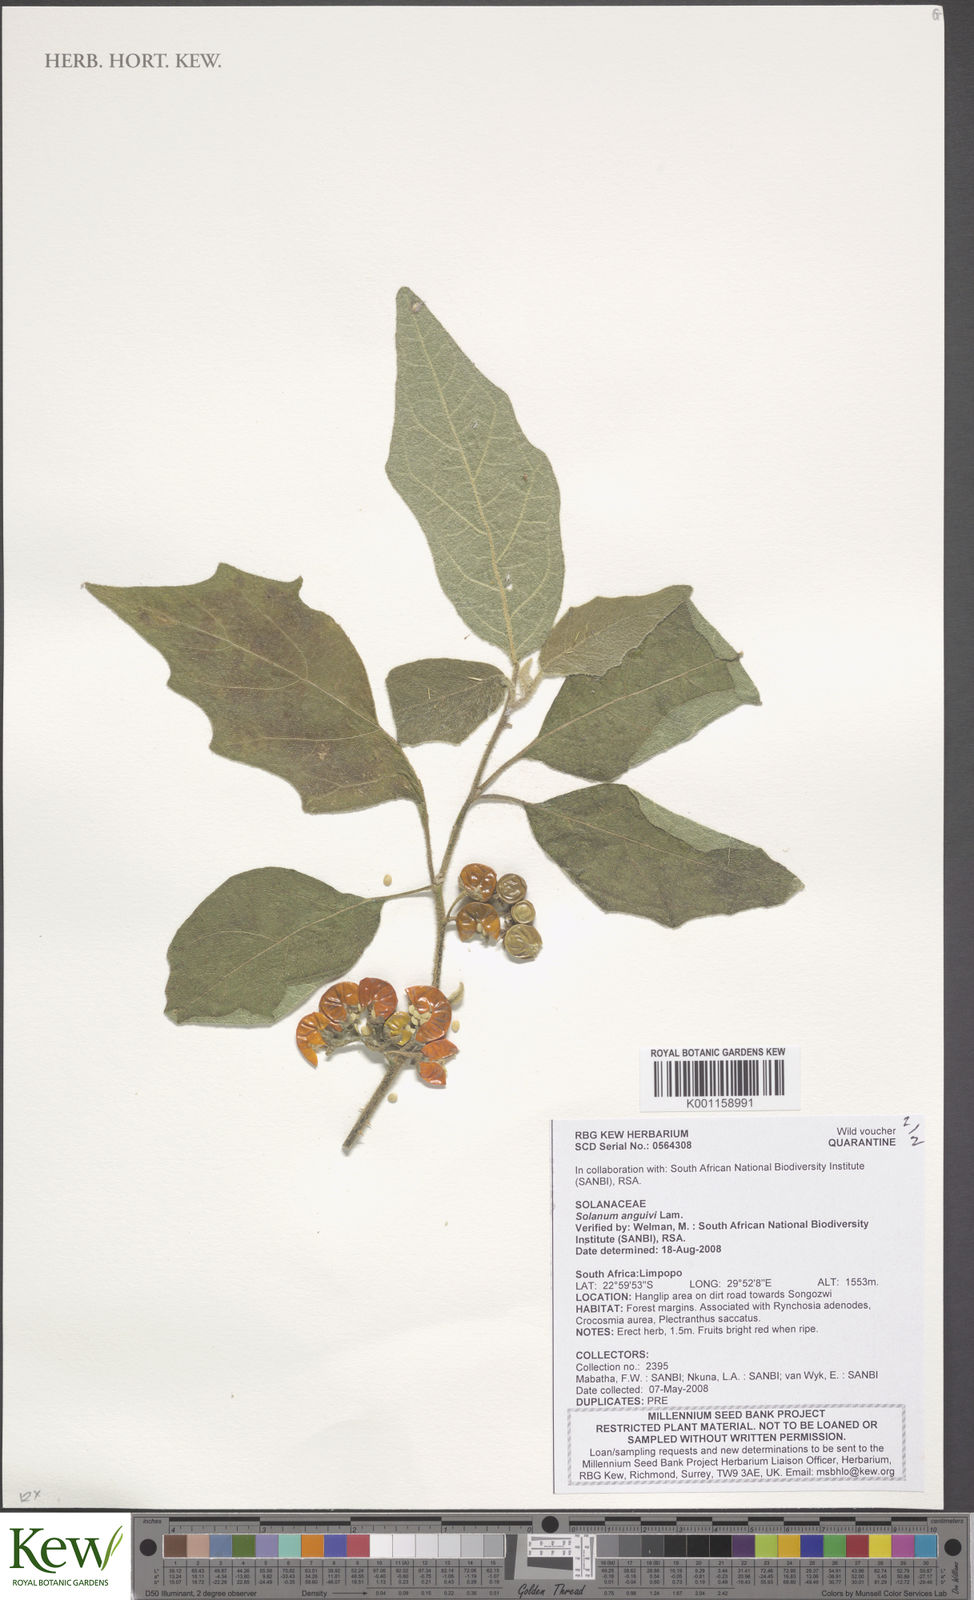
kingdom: Plantae
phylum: Tracheophyta
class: Magnoliopsida
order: Solanales
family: Solanaceae
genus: Solanum
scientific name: Solanum anguivi
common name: Forest bitterberry
